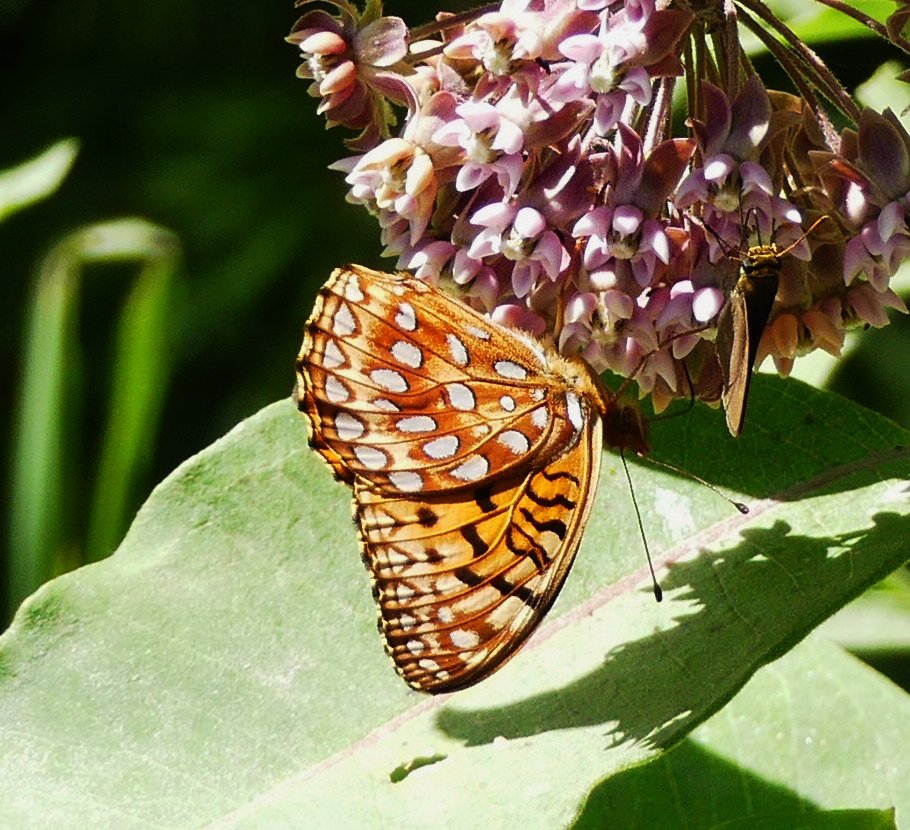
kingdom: Animalia
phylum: Arthropoda
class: Insecta
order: Lepidoptera
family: Nymphalidae
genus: Speyeria
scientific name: Speyeria aphrodite
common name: Aphrodite Fritillary
